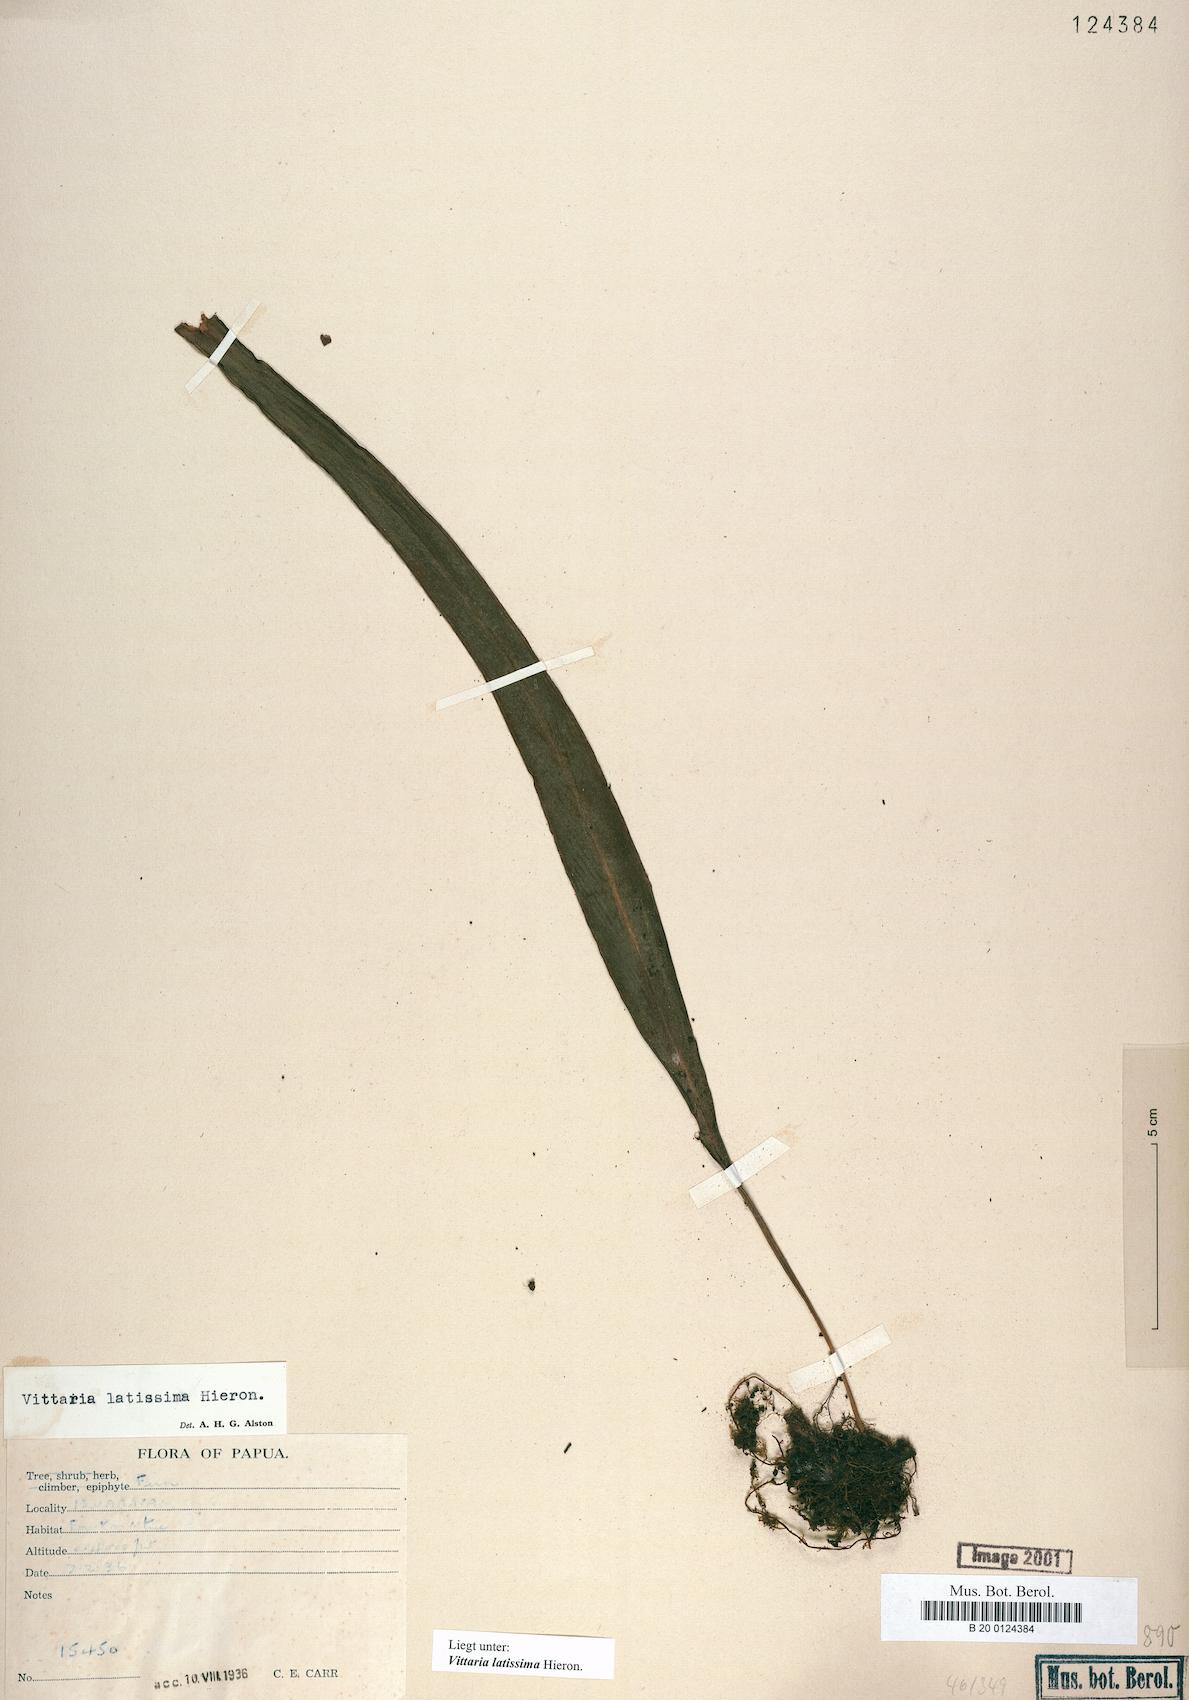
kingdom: Plantae
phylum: Tracheophyta
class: Polypodiopsida
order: Polypodiales
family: Pteridaceae
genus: Haplopteris
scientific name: Haplopteris elongata
